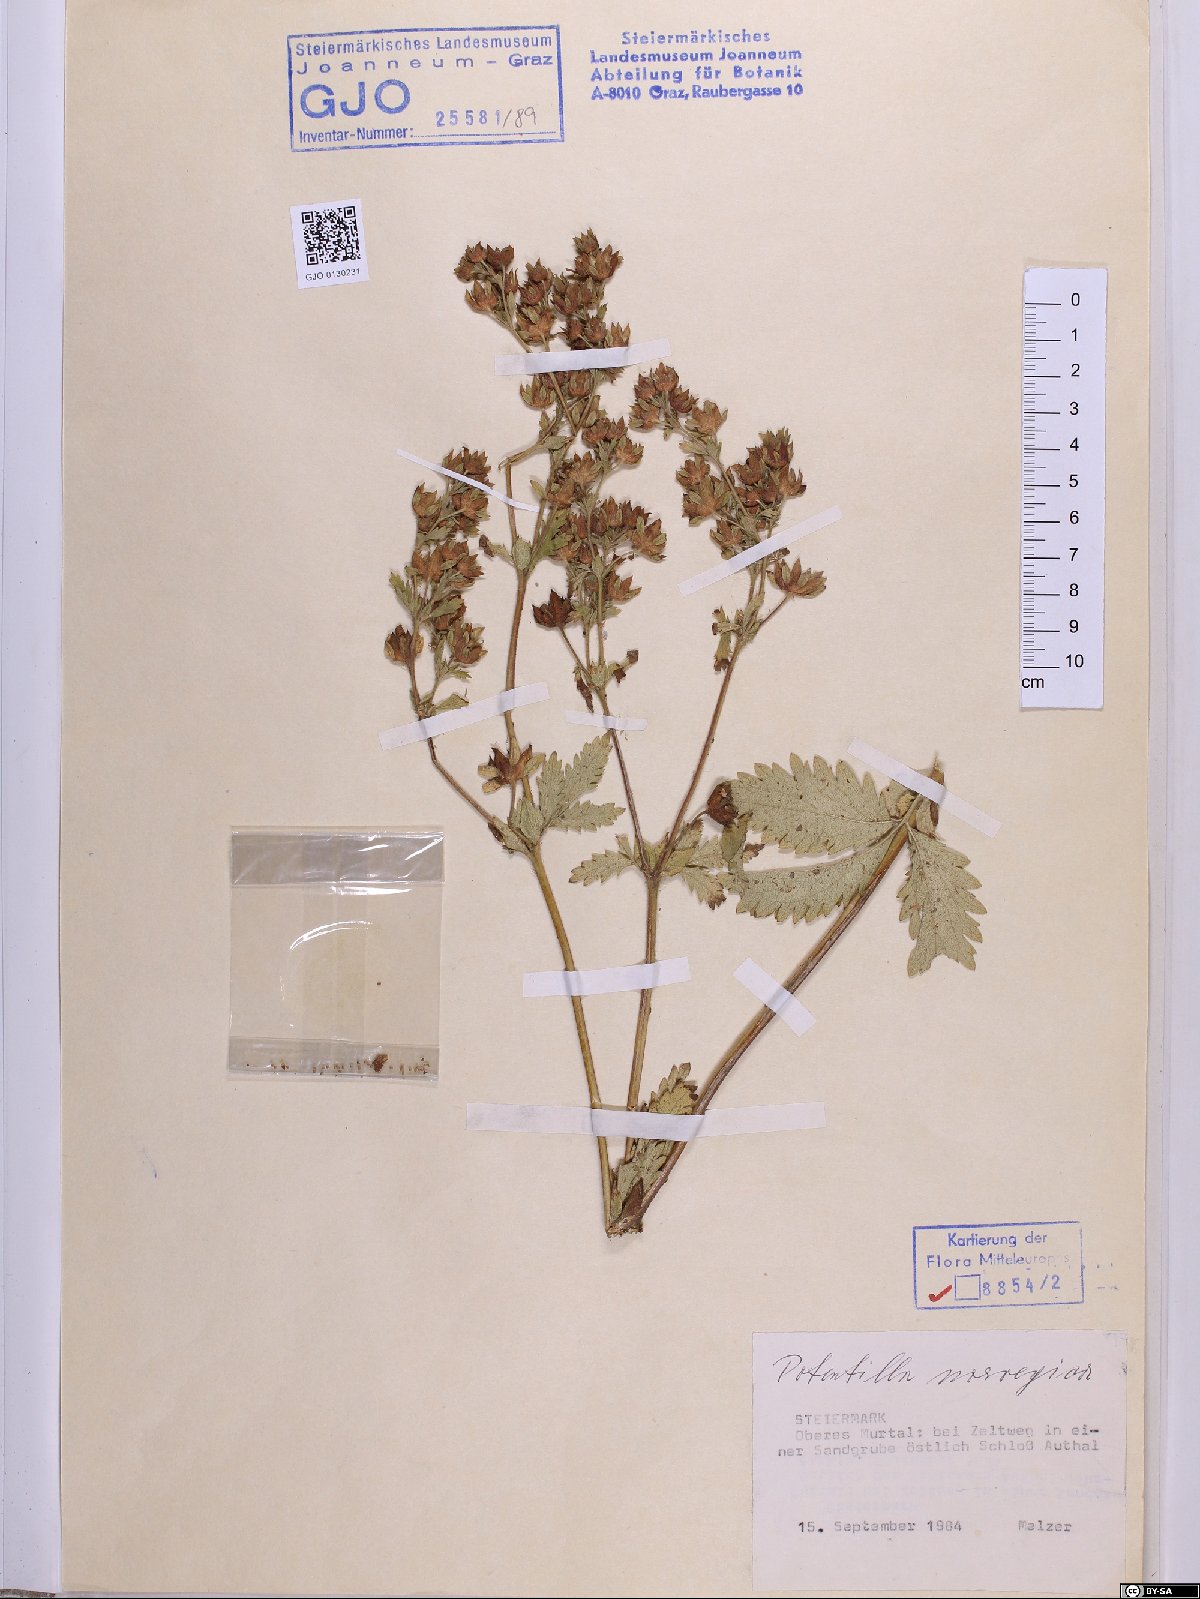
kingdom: Plantae
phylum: Tracheophyta
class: Magnoliopsida
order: Rosales
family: Rosaceae
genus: Potentilla
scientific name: Potentilla norvegica
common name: Ternate-leaved cinquefoil
